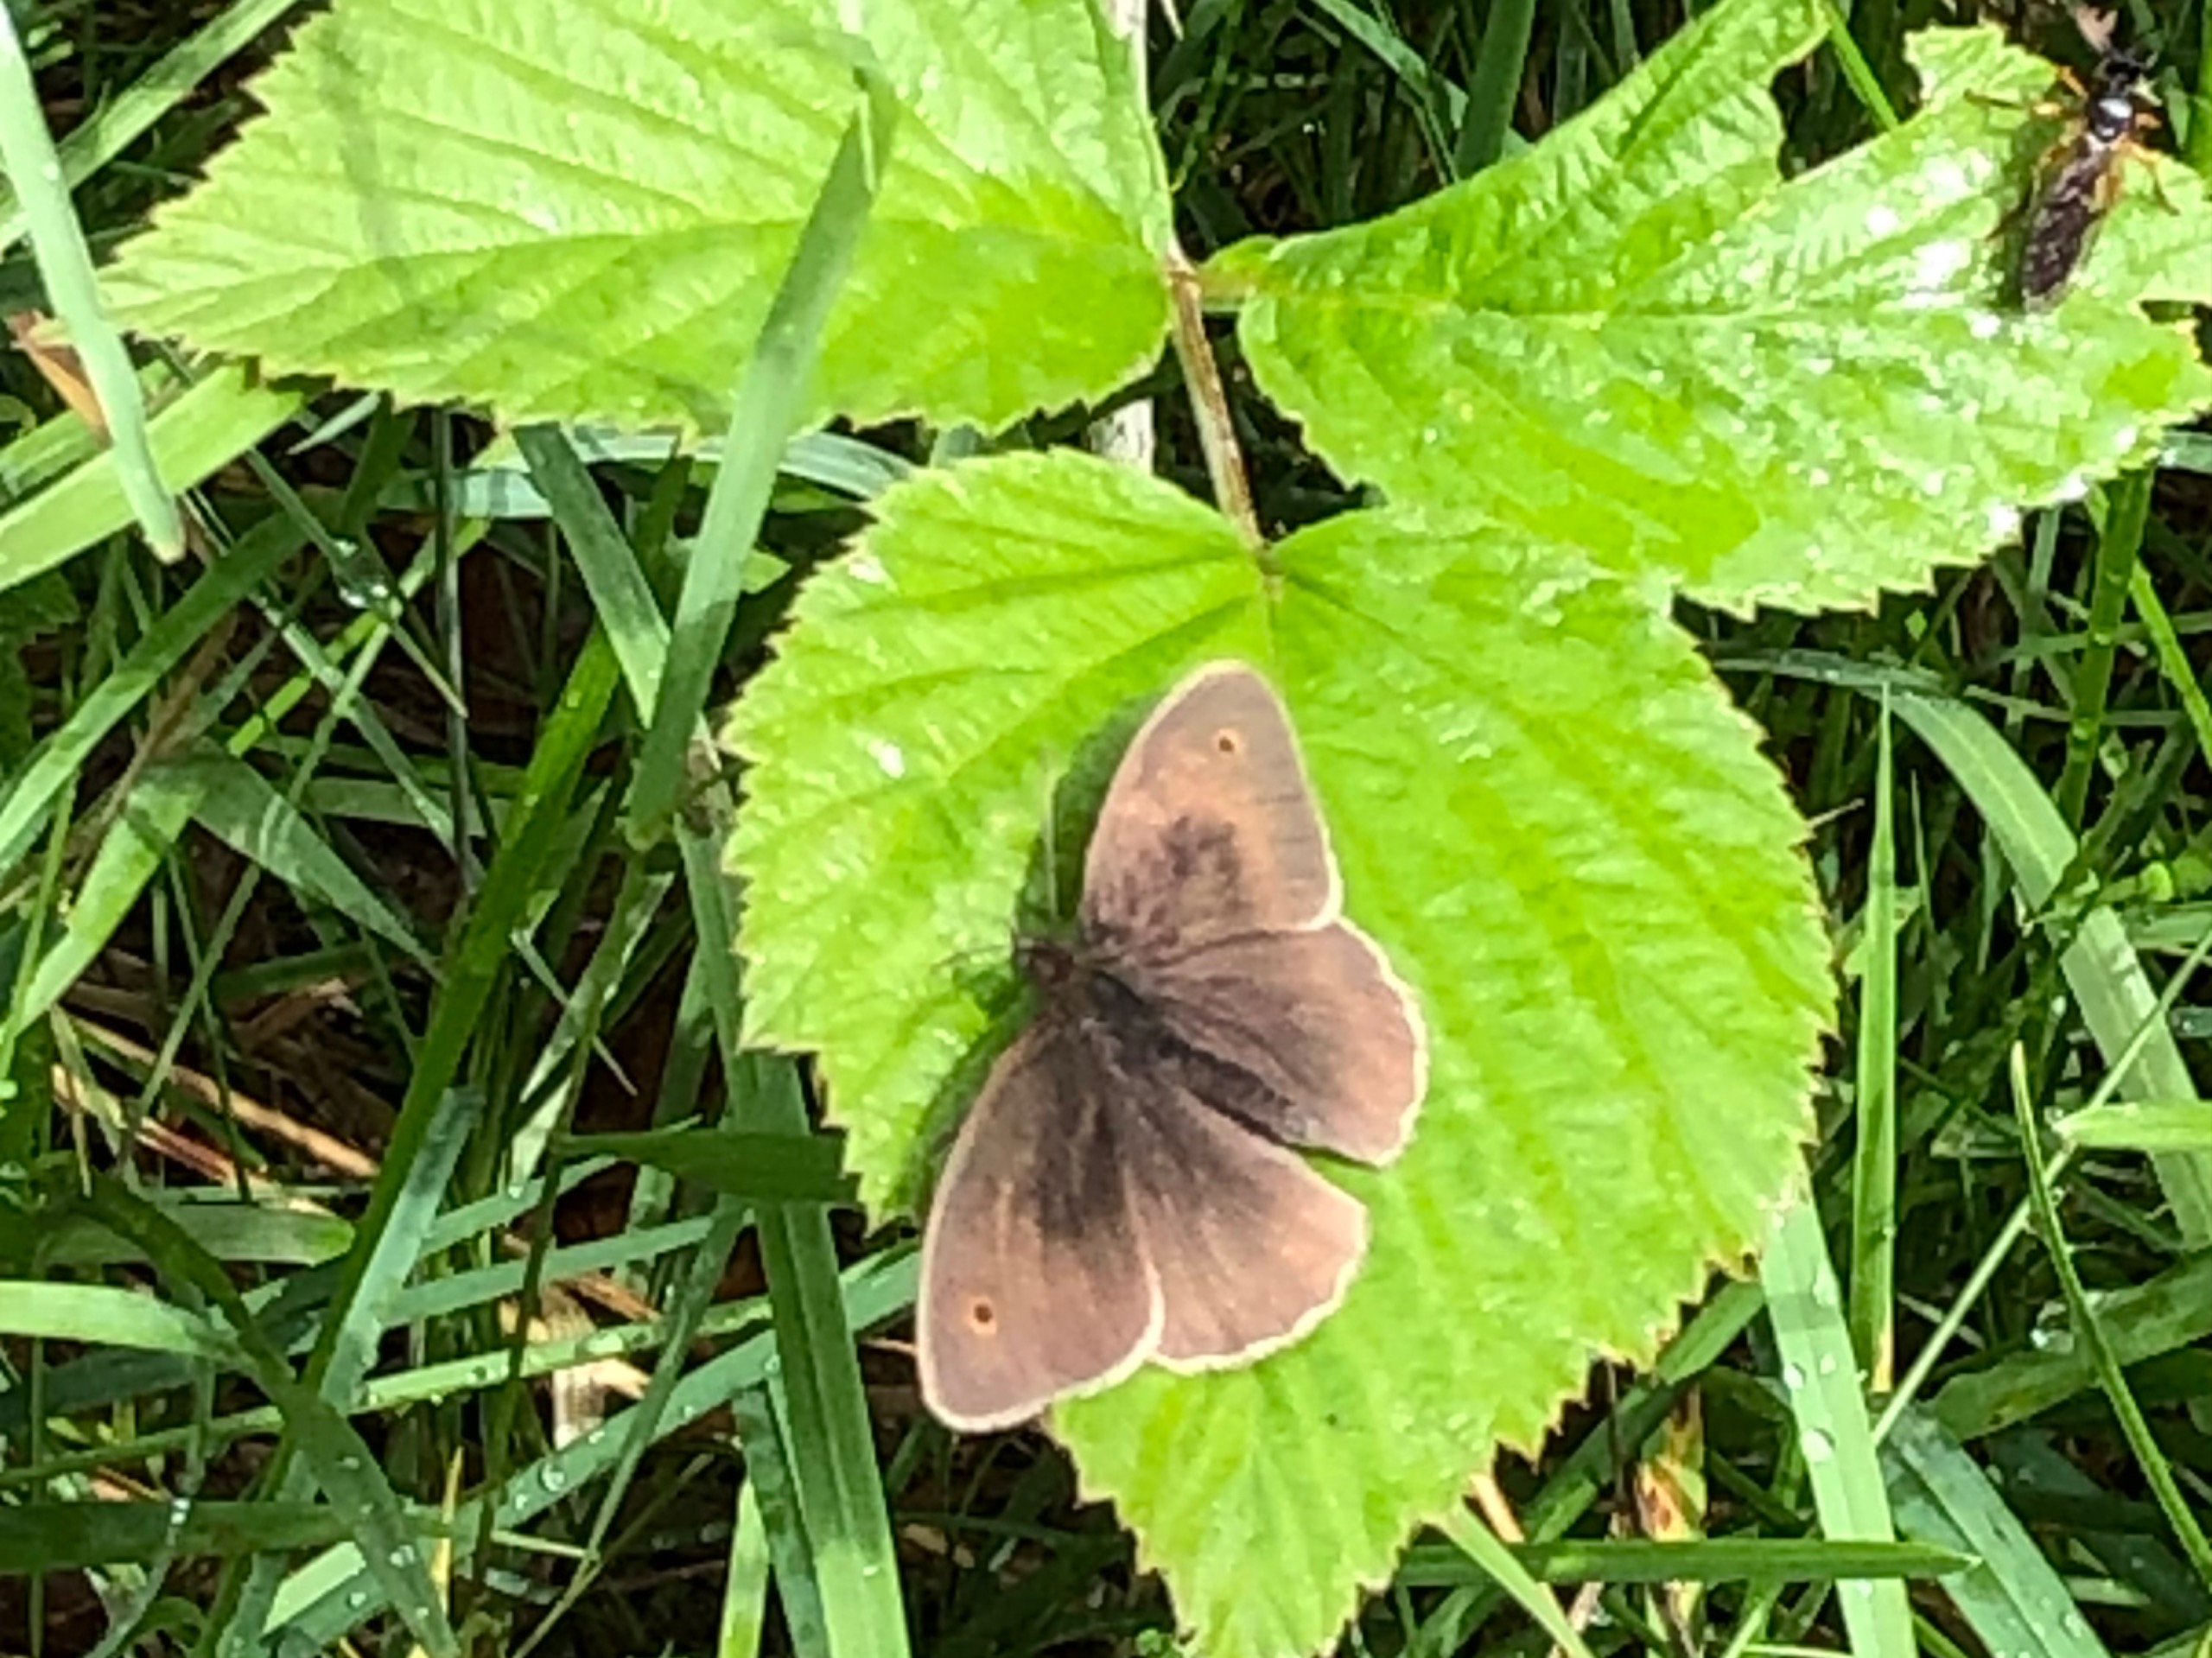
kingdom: Animalia
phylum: Arthropoda
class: Insecta
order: Lepidoptera
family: Nymphalidae
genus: Maniola
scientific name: Maniola jurtina
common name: Græsrandøje
